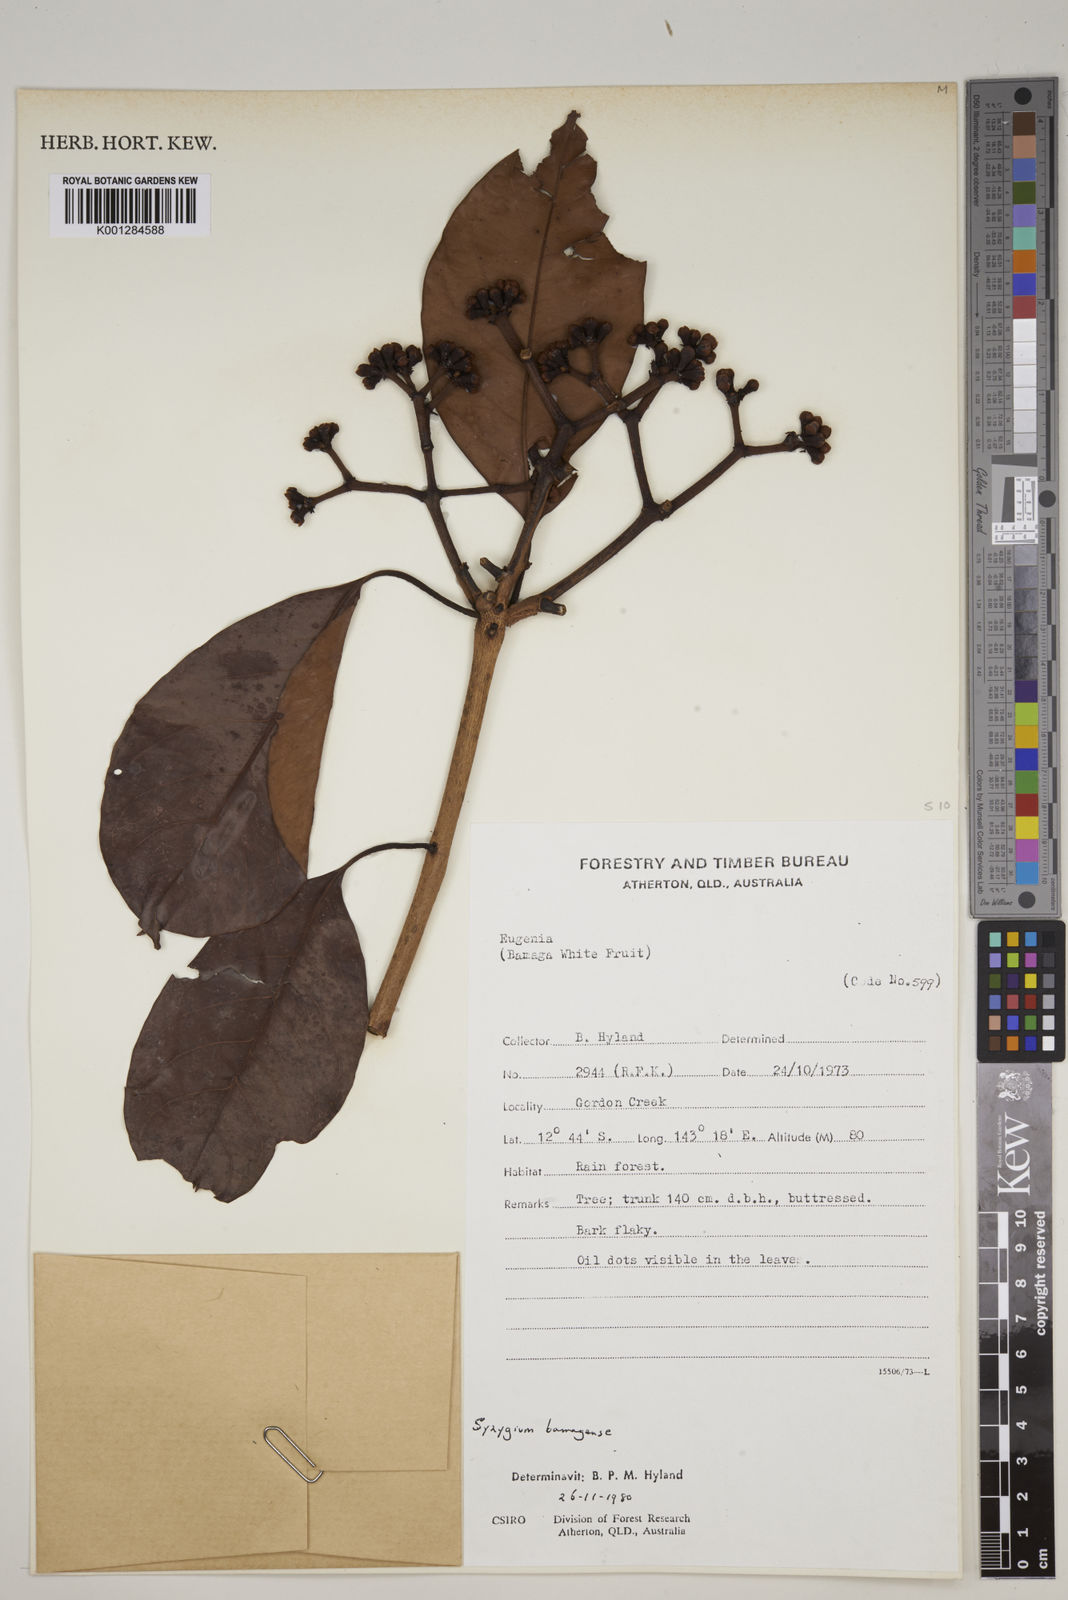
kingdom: Plantae
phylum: Tracheophyta
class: Magnoliopsida
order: Myrtales
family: Myrtaceae
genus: Syzygium
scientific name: Syzygium bamagense
